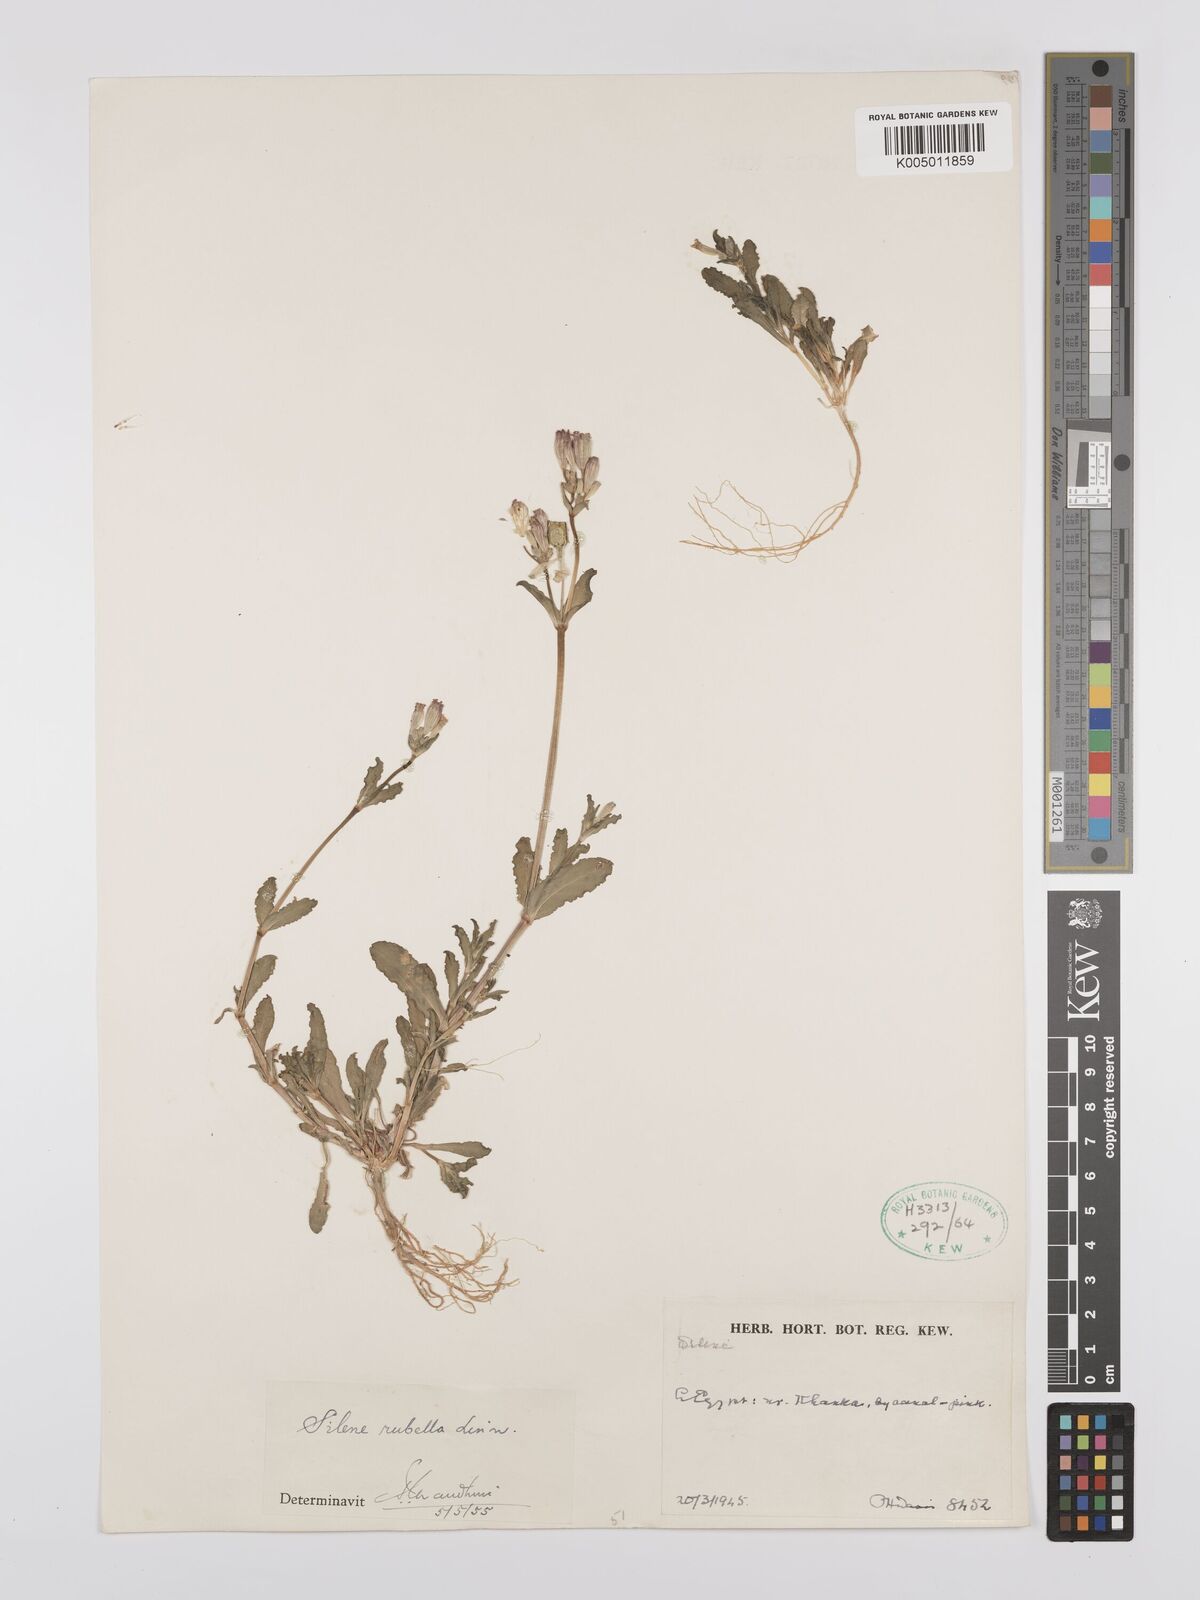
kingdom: Plantae
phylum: Tracheophyta
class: Magnoliopsida
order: Caryophyllales
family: Caryophyllaceae
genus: Silene
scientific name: Silene rubella
